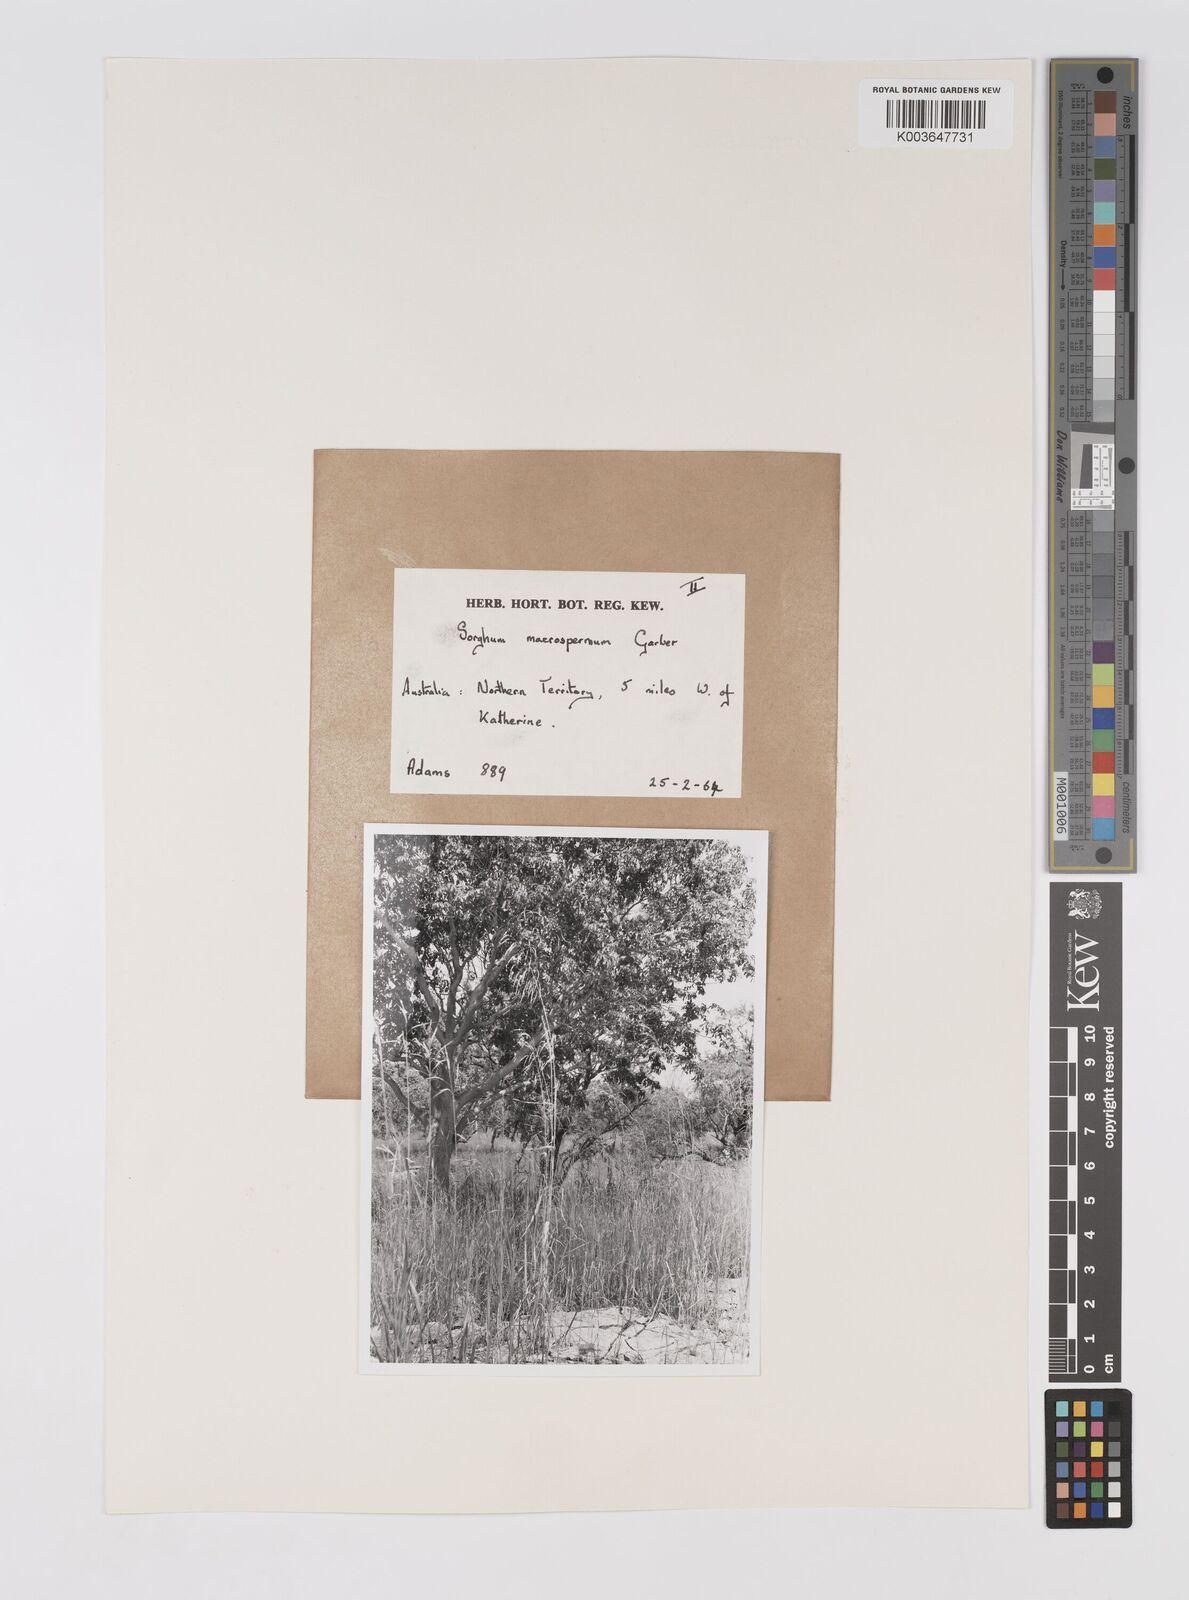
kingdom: Plantae
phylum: Tracheophyta
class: Liliopsida
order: Poales
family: Poaceae
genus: Sorghum
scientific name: Sorghum macrospermum
